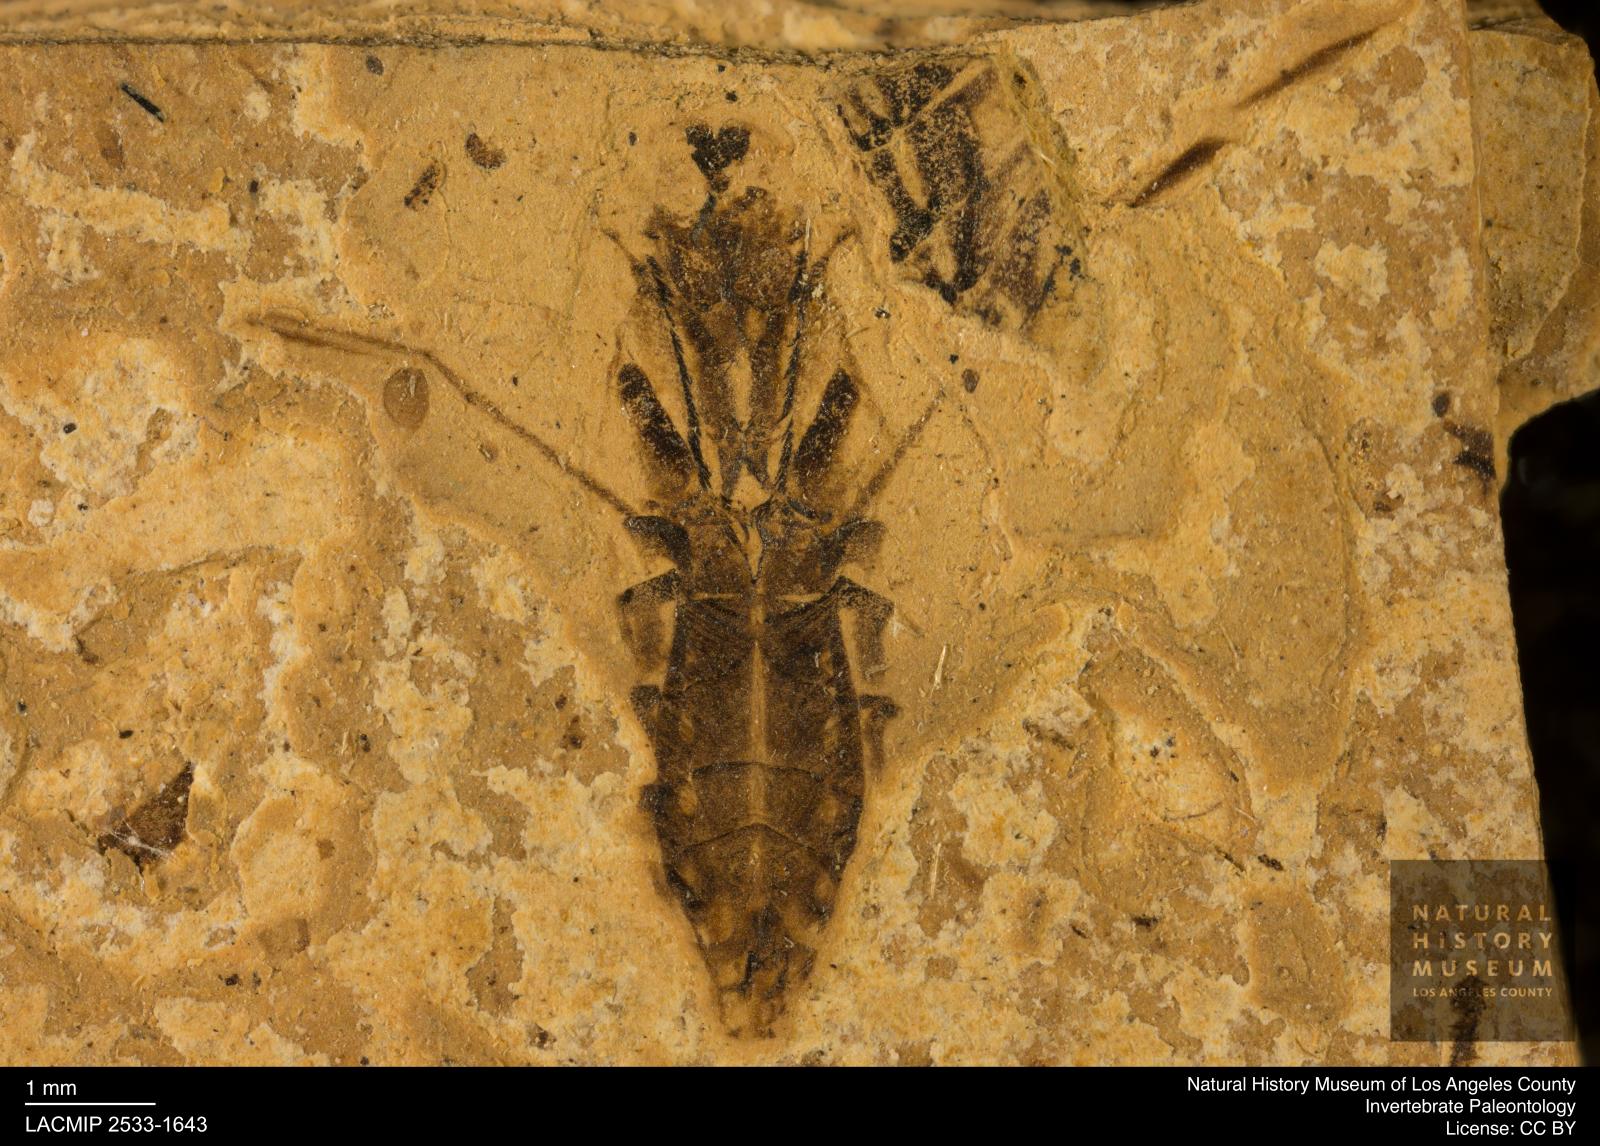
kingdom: Animalia
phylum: Arthropoda
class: Insecta
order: Hemiptera
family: Notonectidae
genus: Notonecta
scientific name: Notonecta
